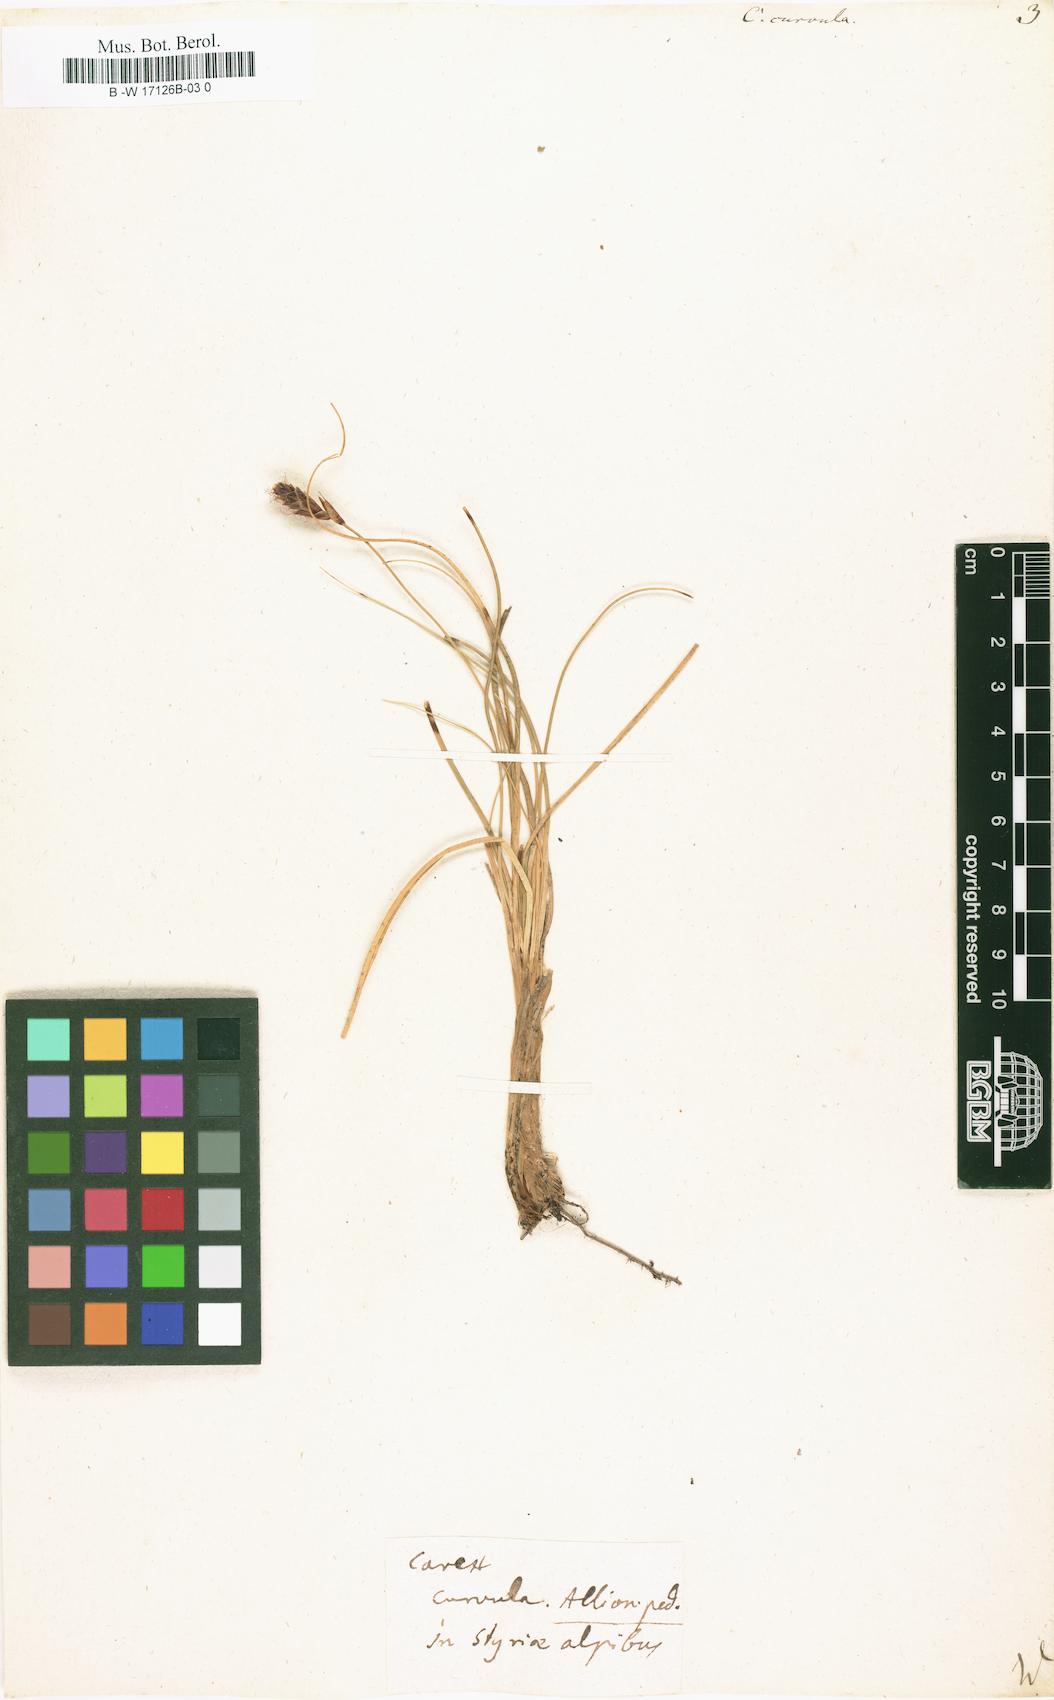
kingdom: Plantae
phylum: Tracheophyta
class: Liliopsida
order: Poales
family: Cyperaceae
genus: Carex
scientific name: Carex curvula
